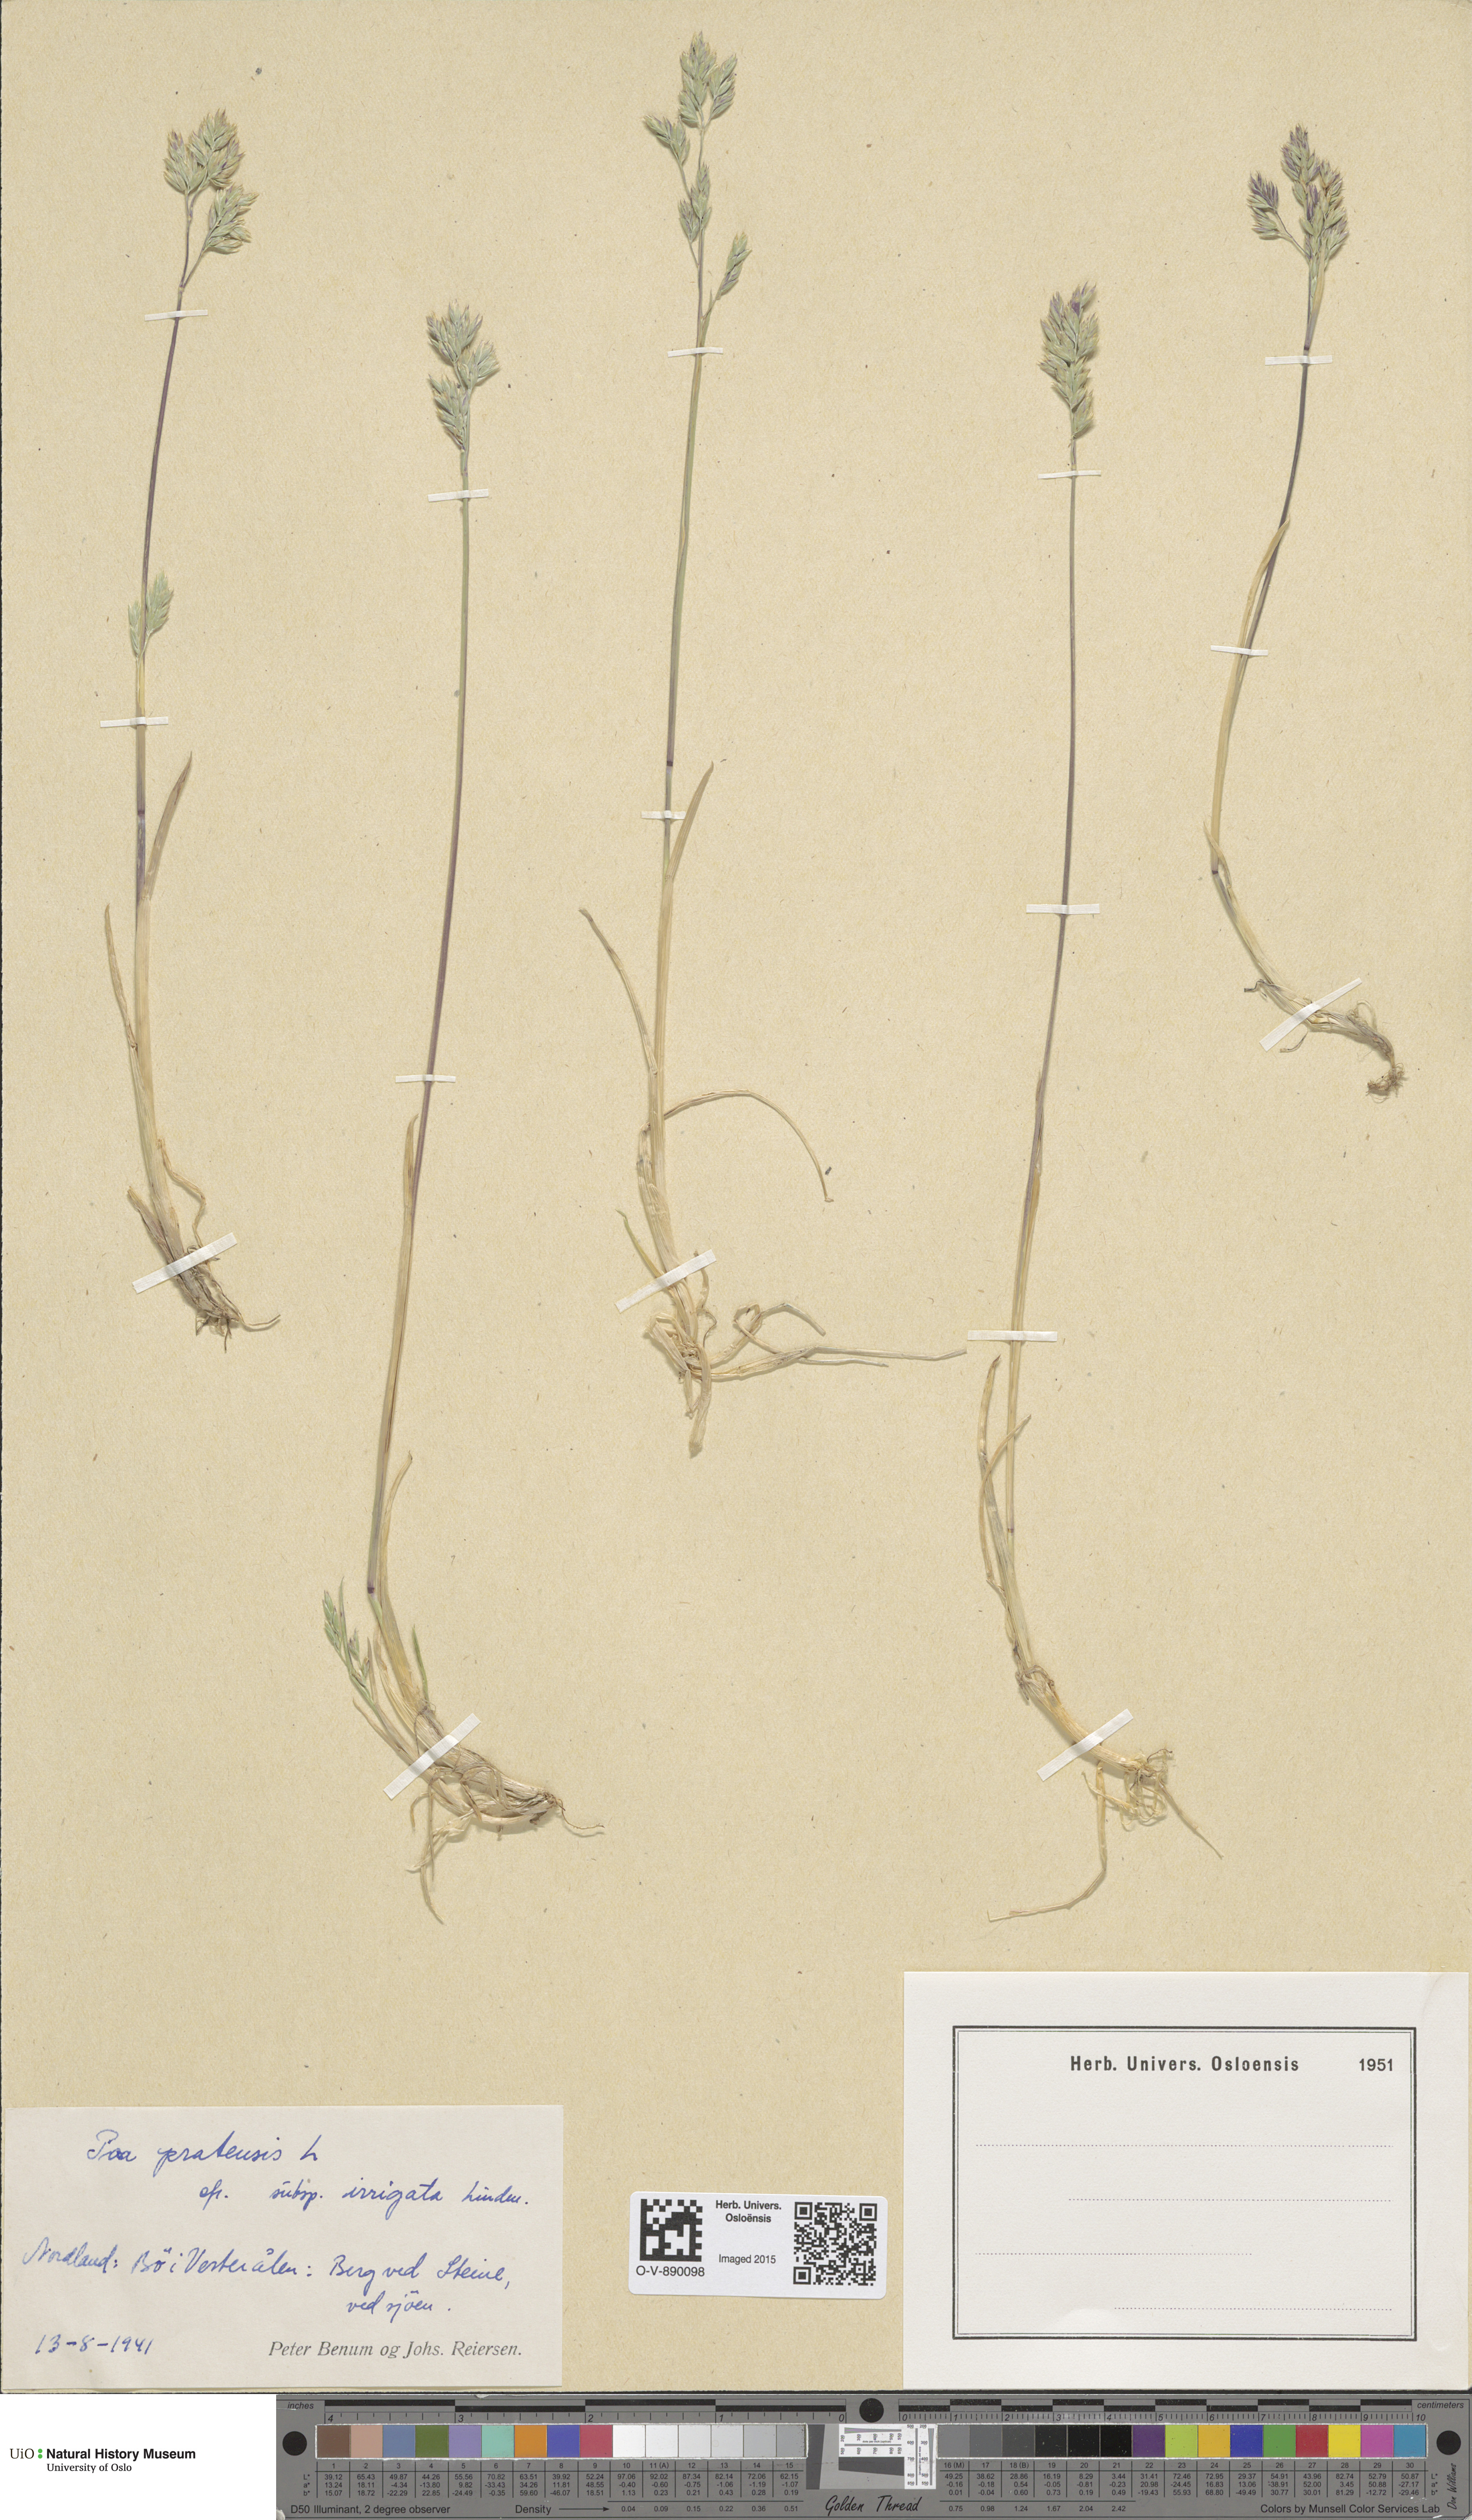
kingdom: Plantae
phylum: Tracheophyta
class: Liliopsida
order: Poales
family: Poaceae
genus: Poa
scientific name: Poa humilis
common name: Spreading meadow-grass
